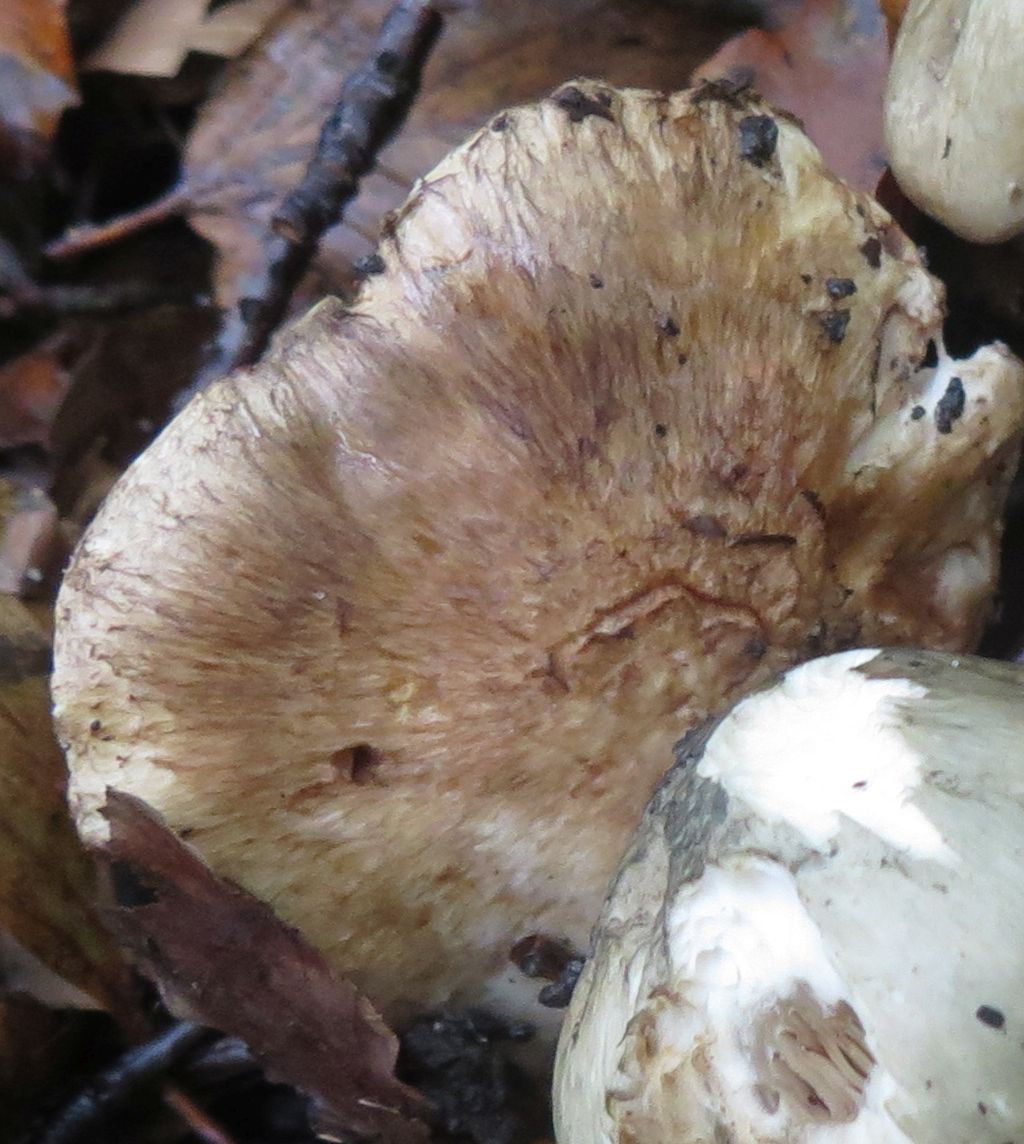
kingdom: Fungi
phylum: Basidiomycota
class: Agaricomycetes
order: Agaricales
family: Inocybaceae
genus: Inocybe
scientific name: Inocybe
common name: trævlhat
